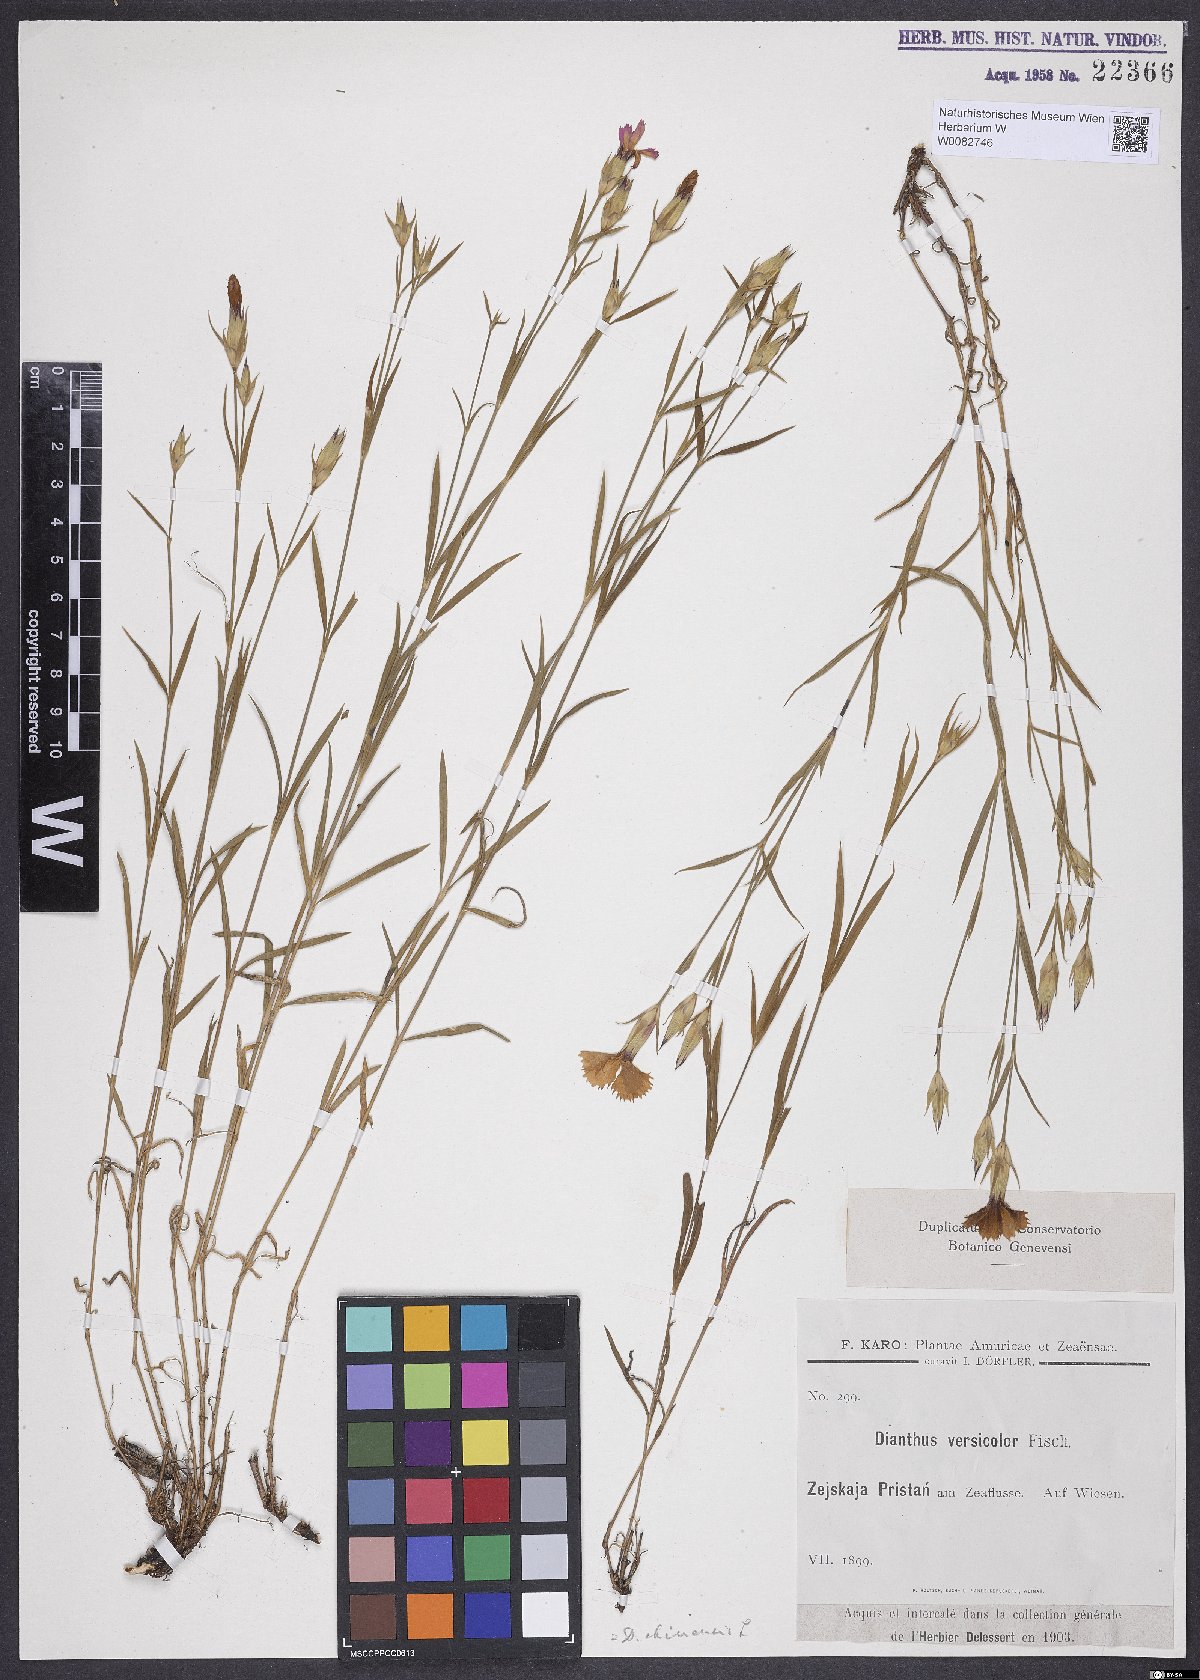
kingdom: Plantae
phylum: Tracheophyta
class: Magnoliopsida
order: Caryophyllales
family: Caryophyllaceae
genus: Dianthus
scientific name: Dianthus chinensis
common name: Rainbow pink
